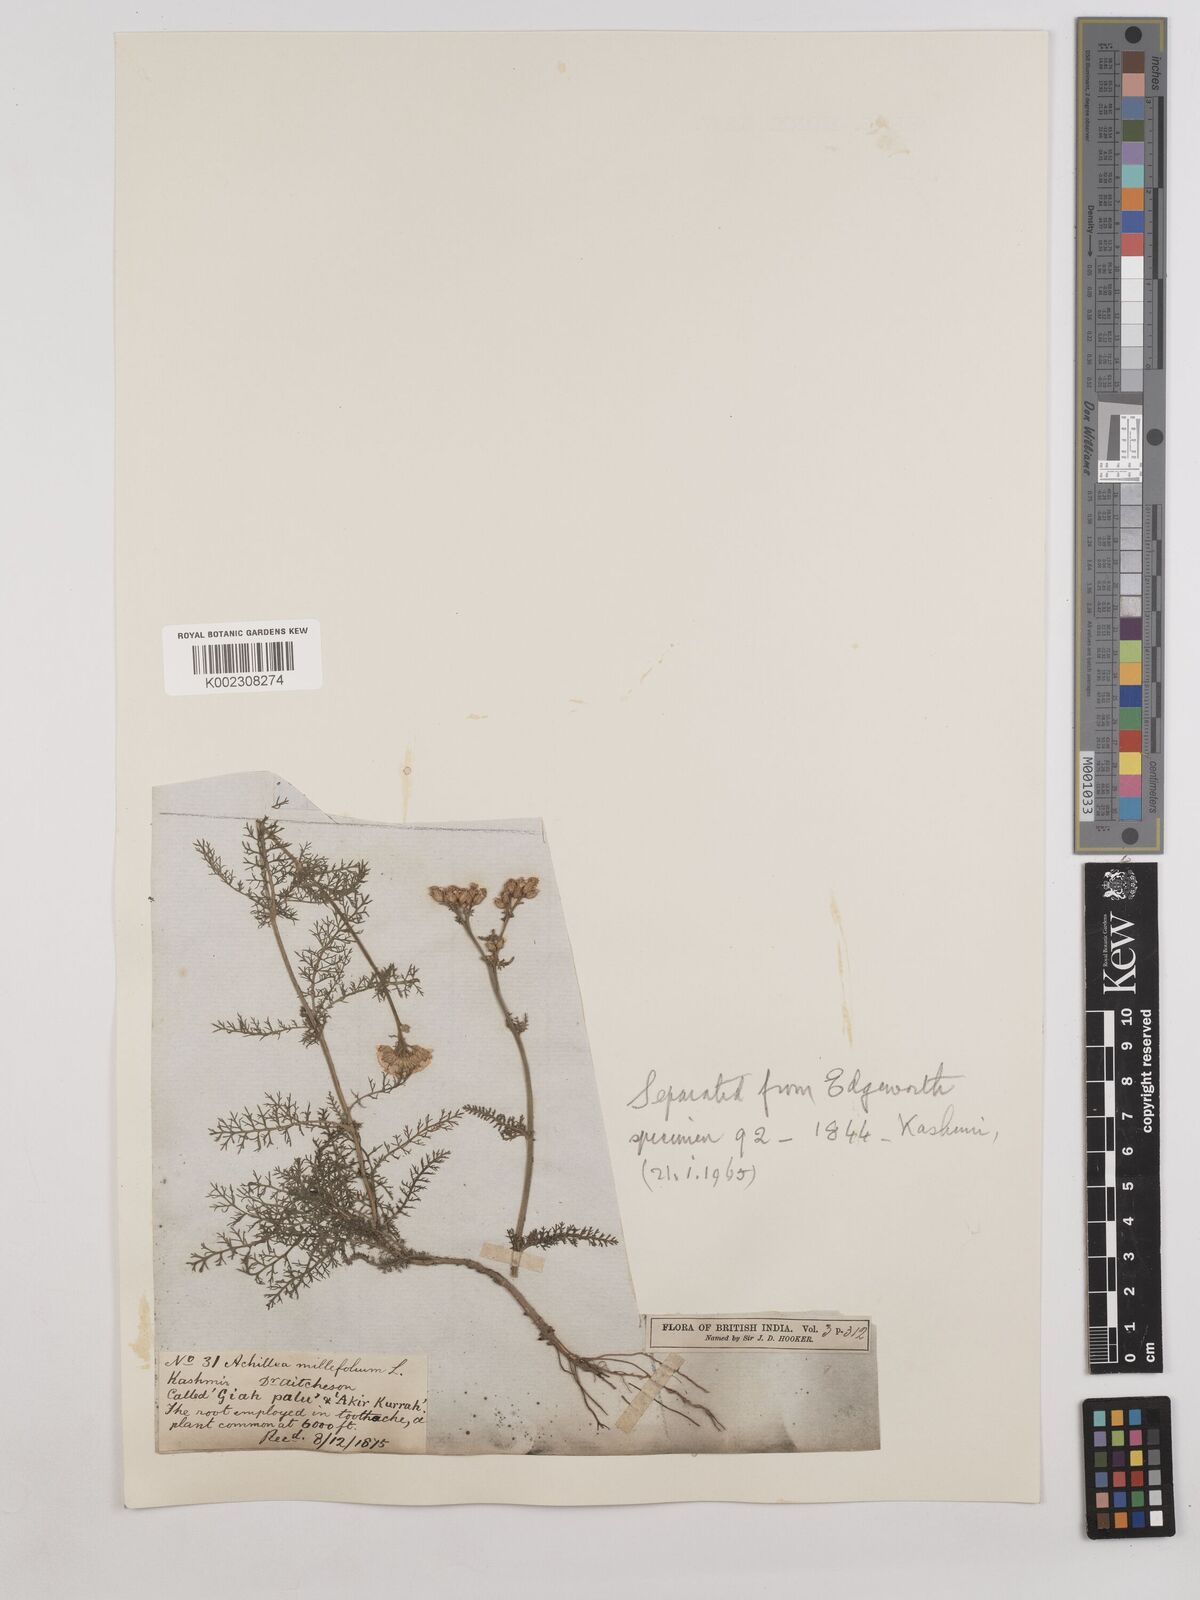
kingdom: Plantae
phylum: Tracheophyta
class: Magnoliopsida
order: Asterales
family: Asteraceae
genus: Achillea
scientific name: Achillea millefolium
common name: Yarrow
